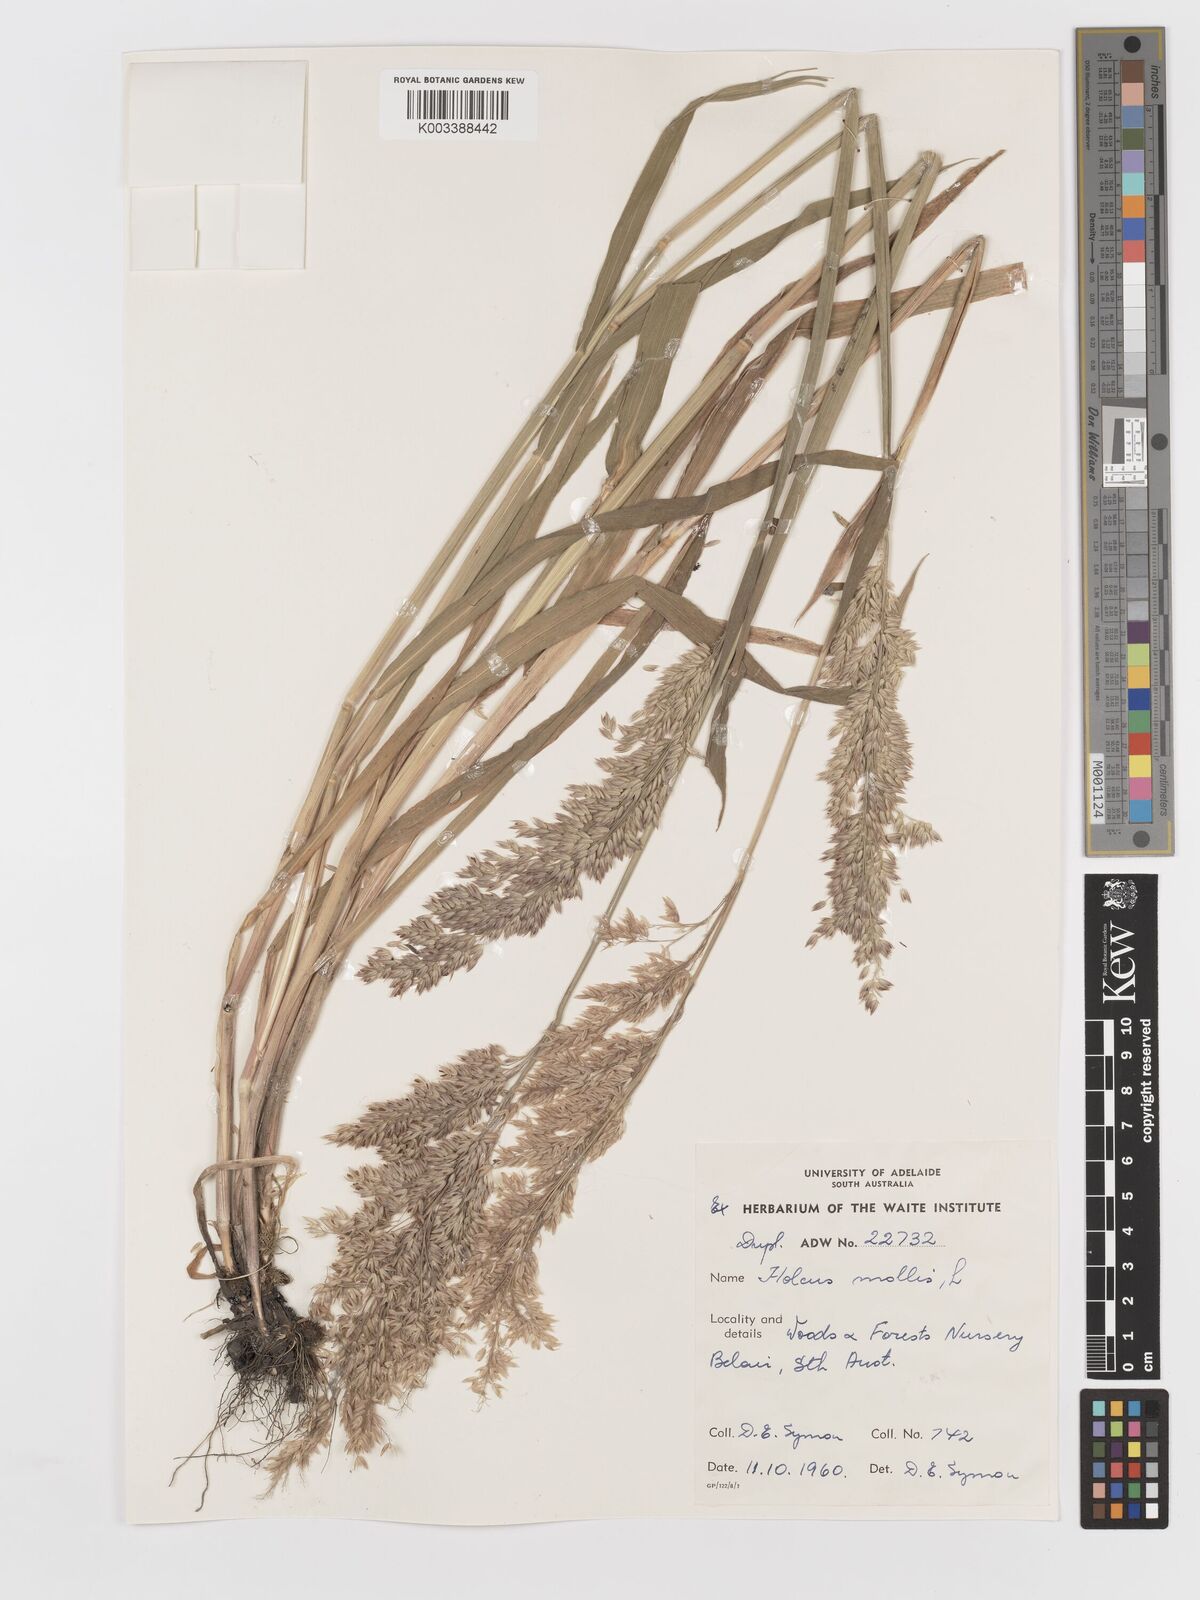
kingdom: Plantae
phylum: Tracheophyta
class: Liliopsida
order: Poales
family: Poaceae
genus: Holcus
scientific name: Holcus lanatus
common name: Yorkshire-fog
